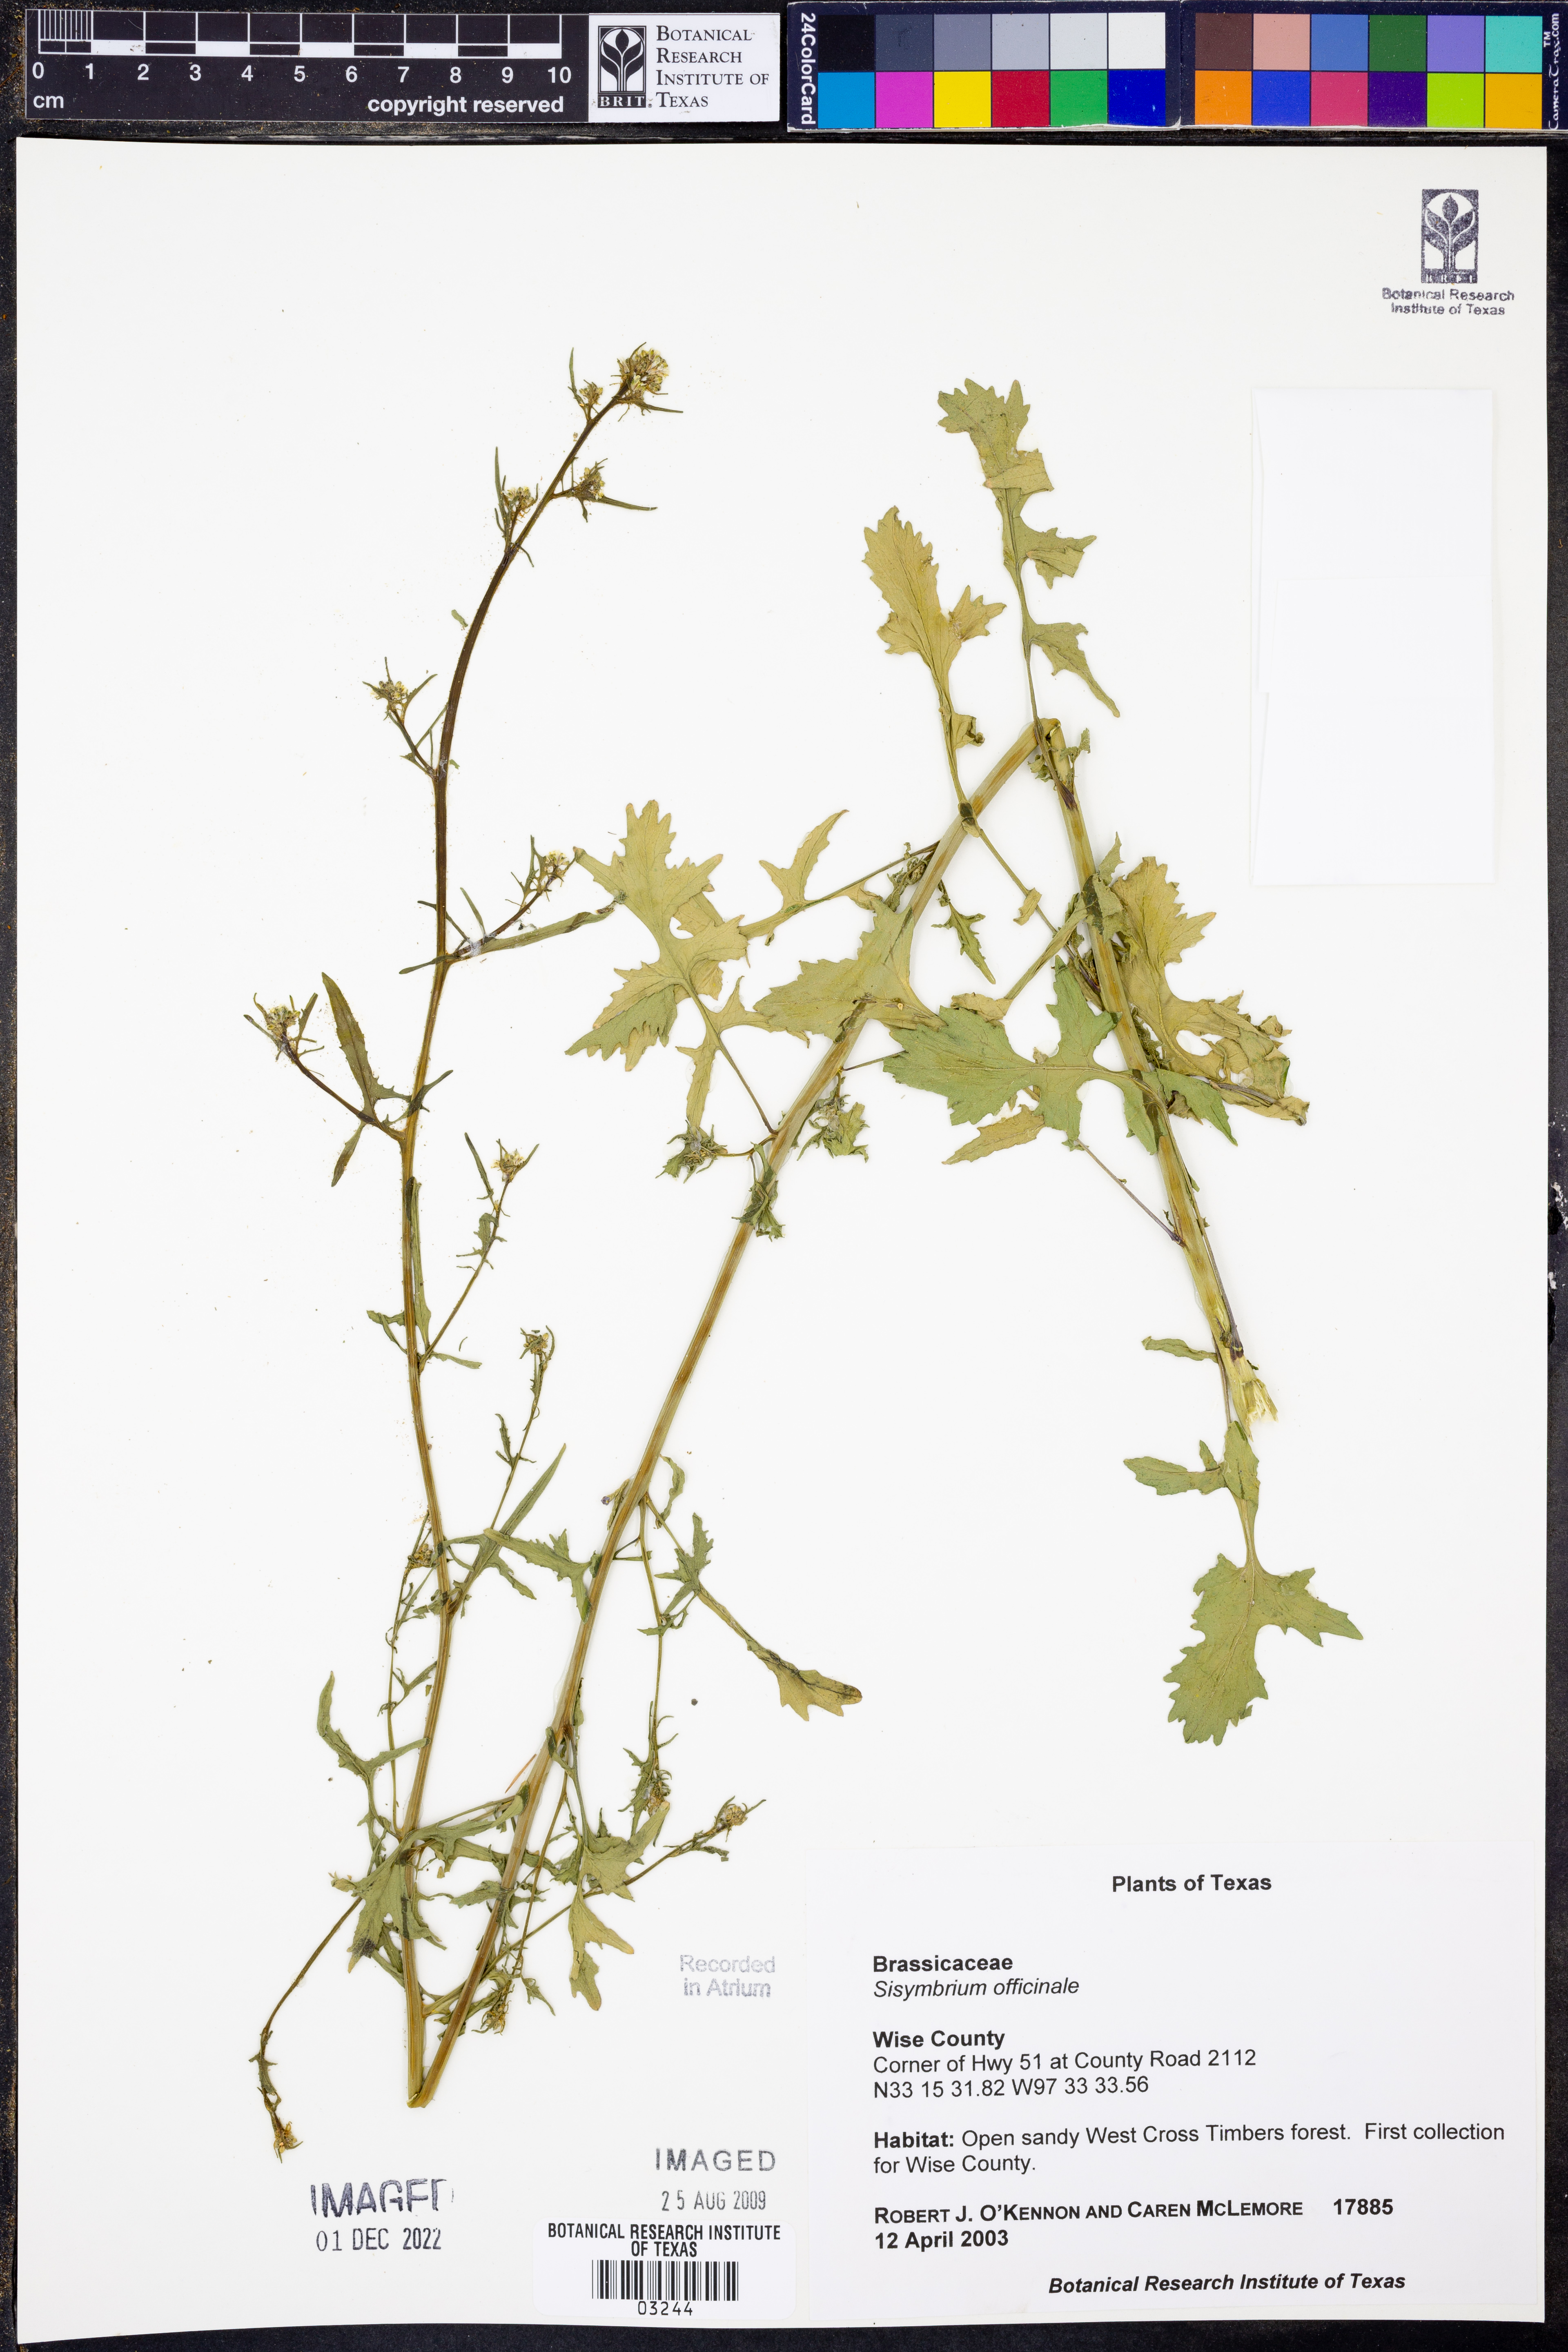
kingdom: Plantae
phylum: Tracheophyta
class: Magnoliopsida
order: Brassicales
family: Brassicaceae
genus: Sisymbrium
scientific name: Sisymbrium officinale
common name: Hedge mustard
